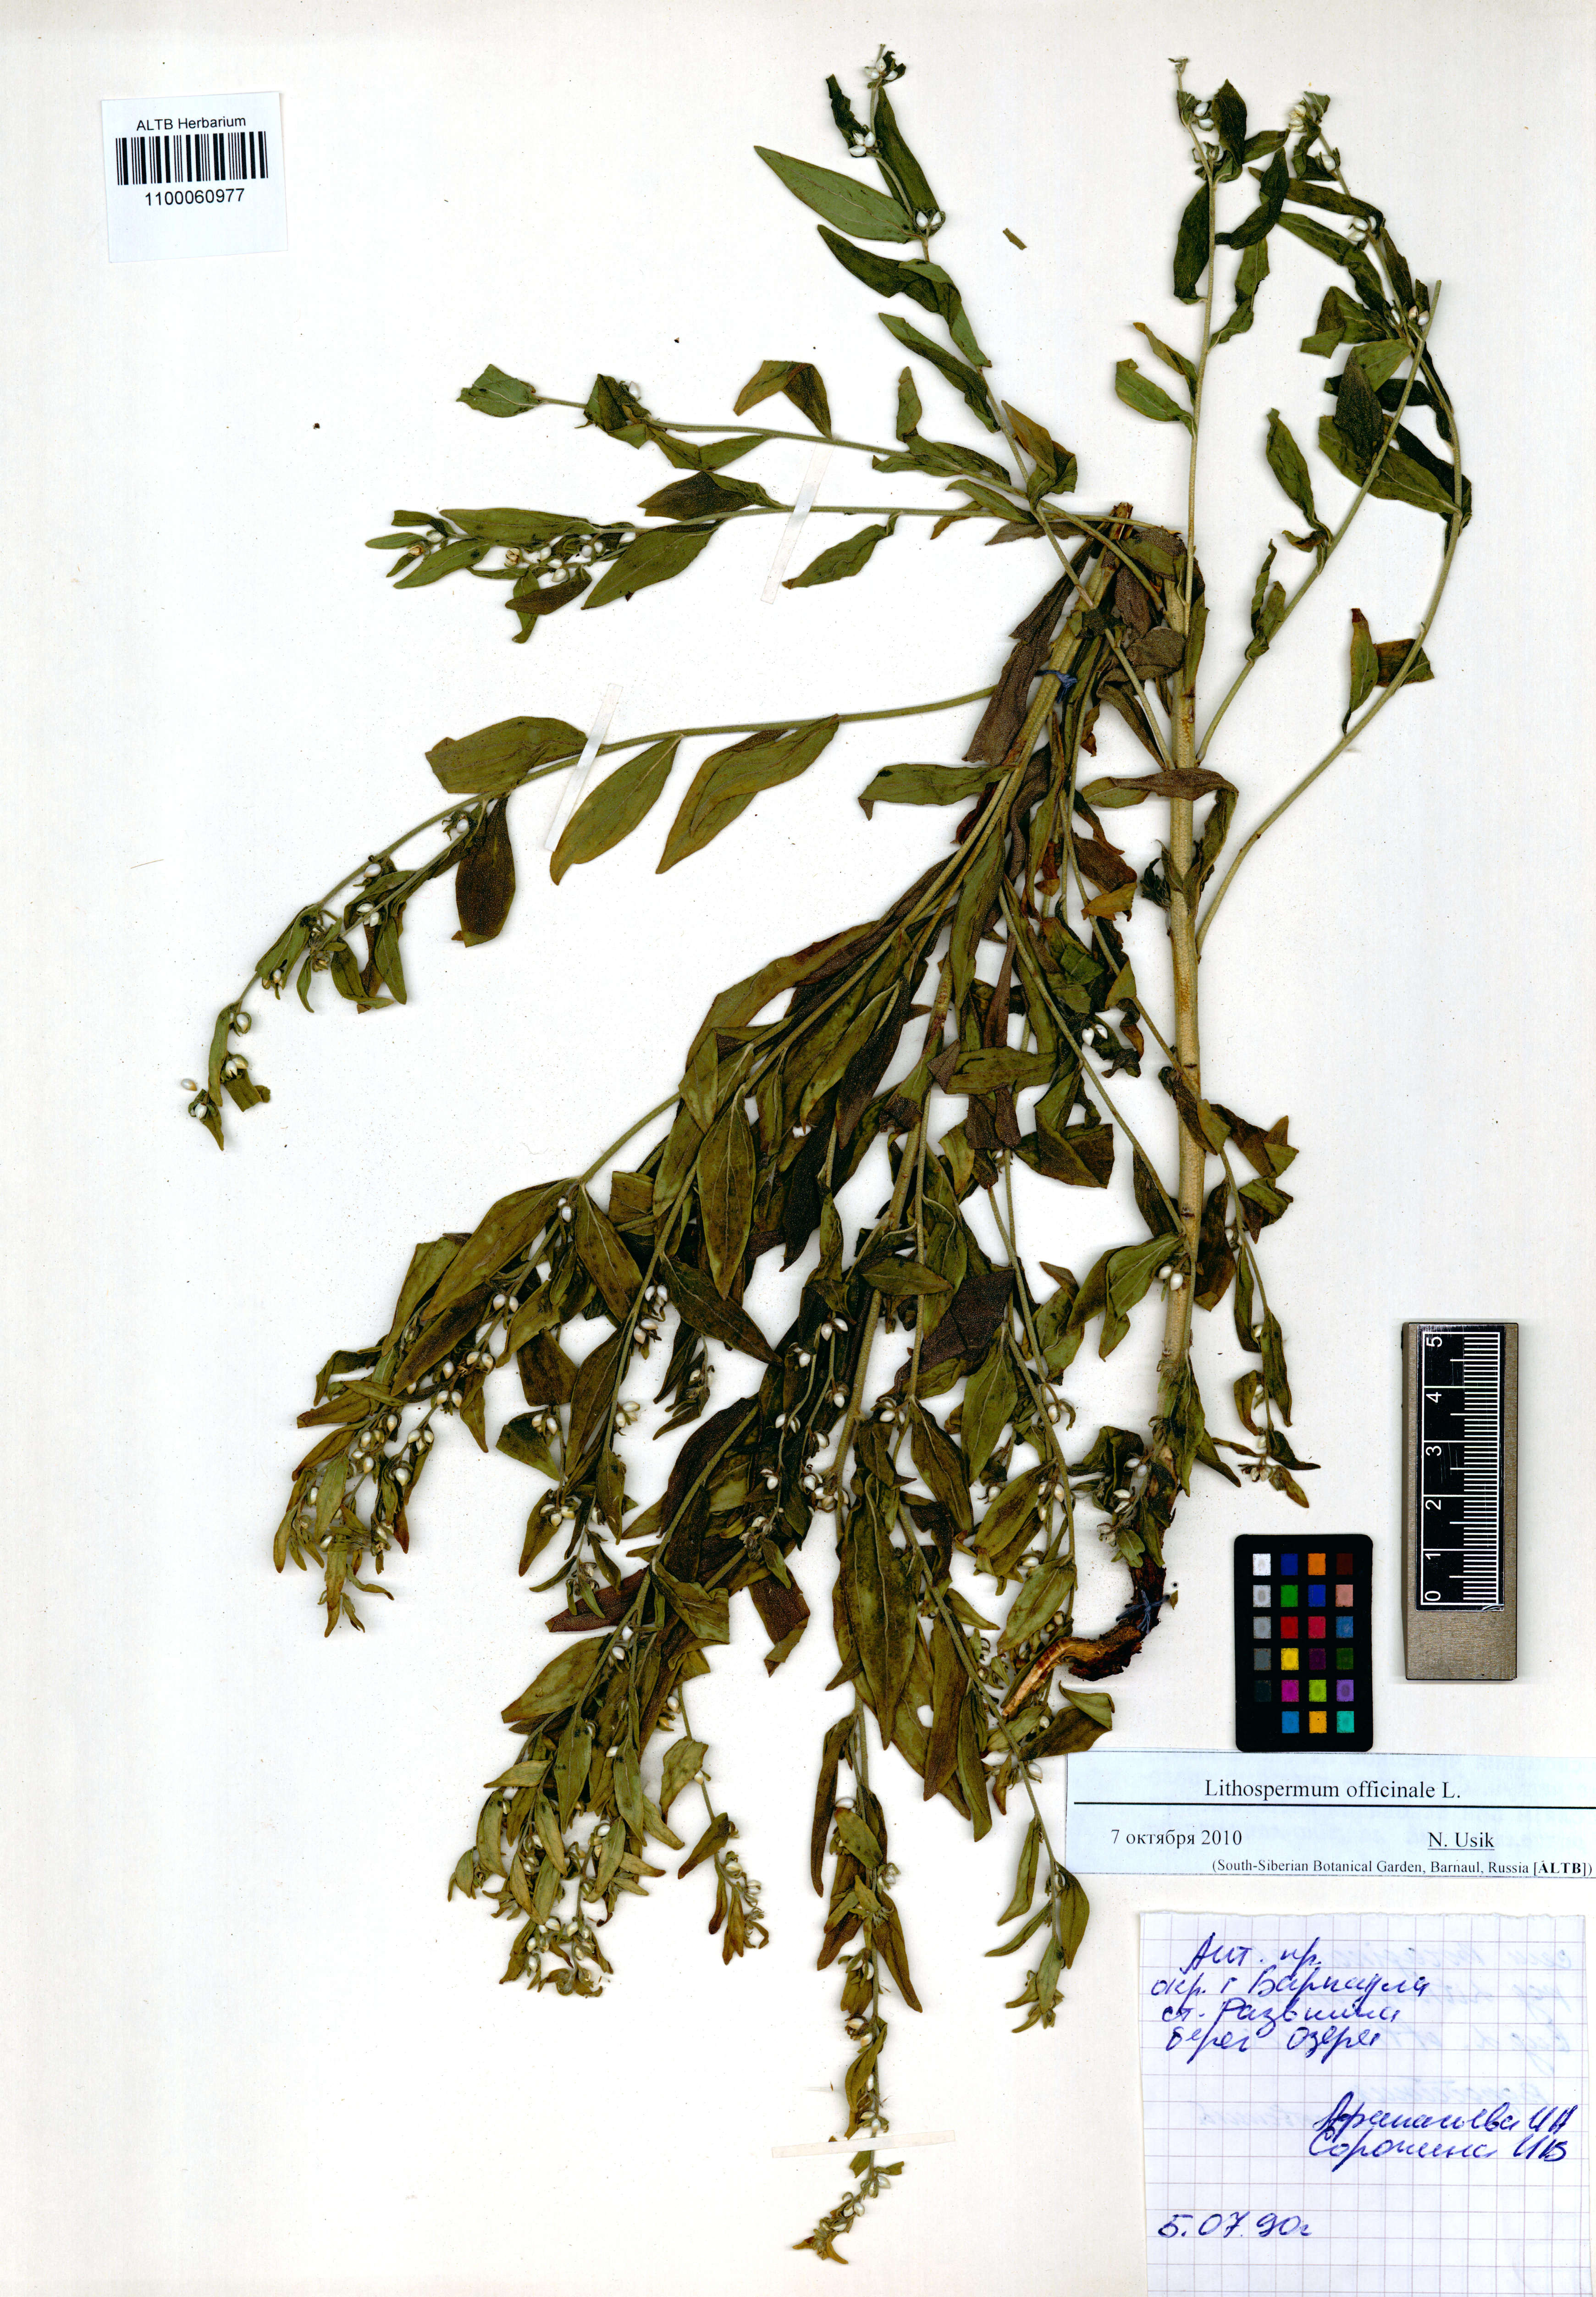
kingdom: Plantae
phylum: Tracheophyta
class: Magnoliopsida
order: Boraginales
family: Boraginaceae
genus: Lithospermum
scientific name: Lithospermum officinale
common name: Common gromwell
